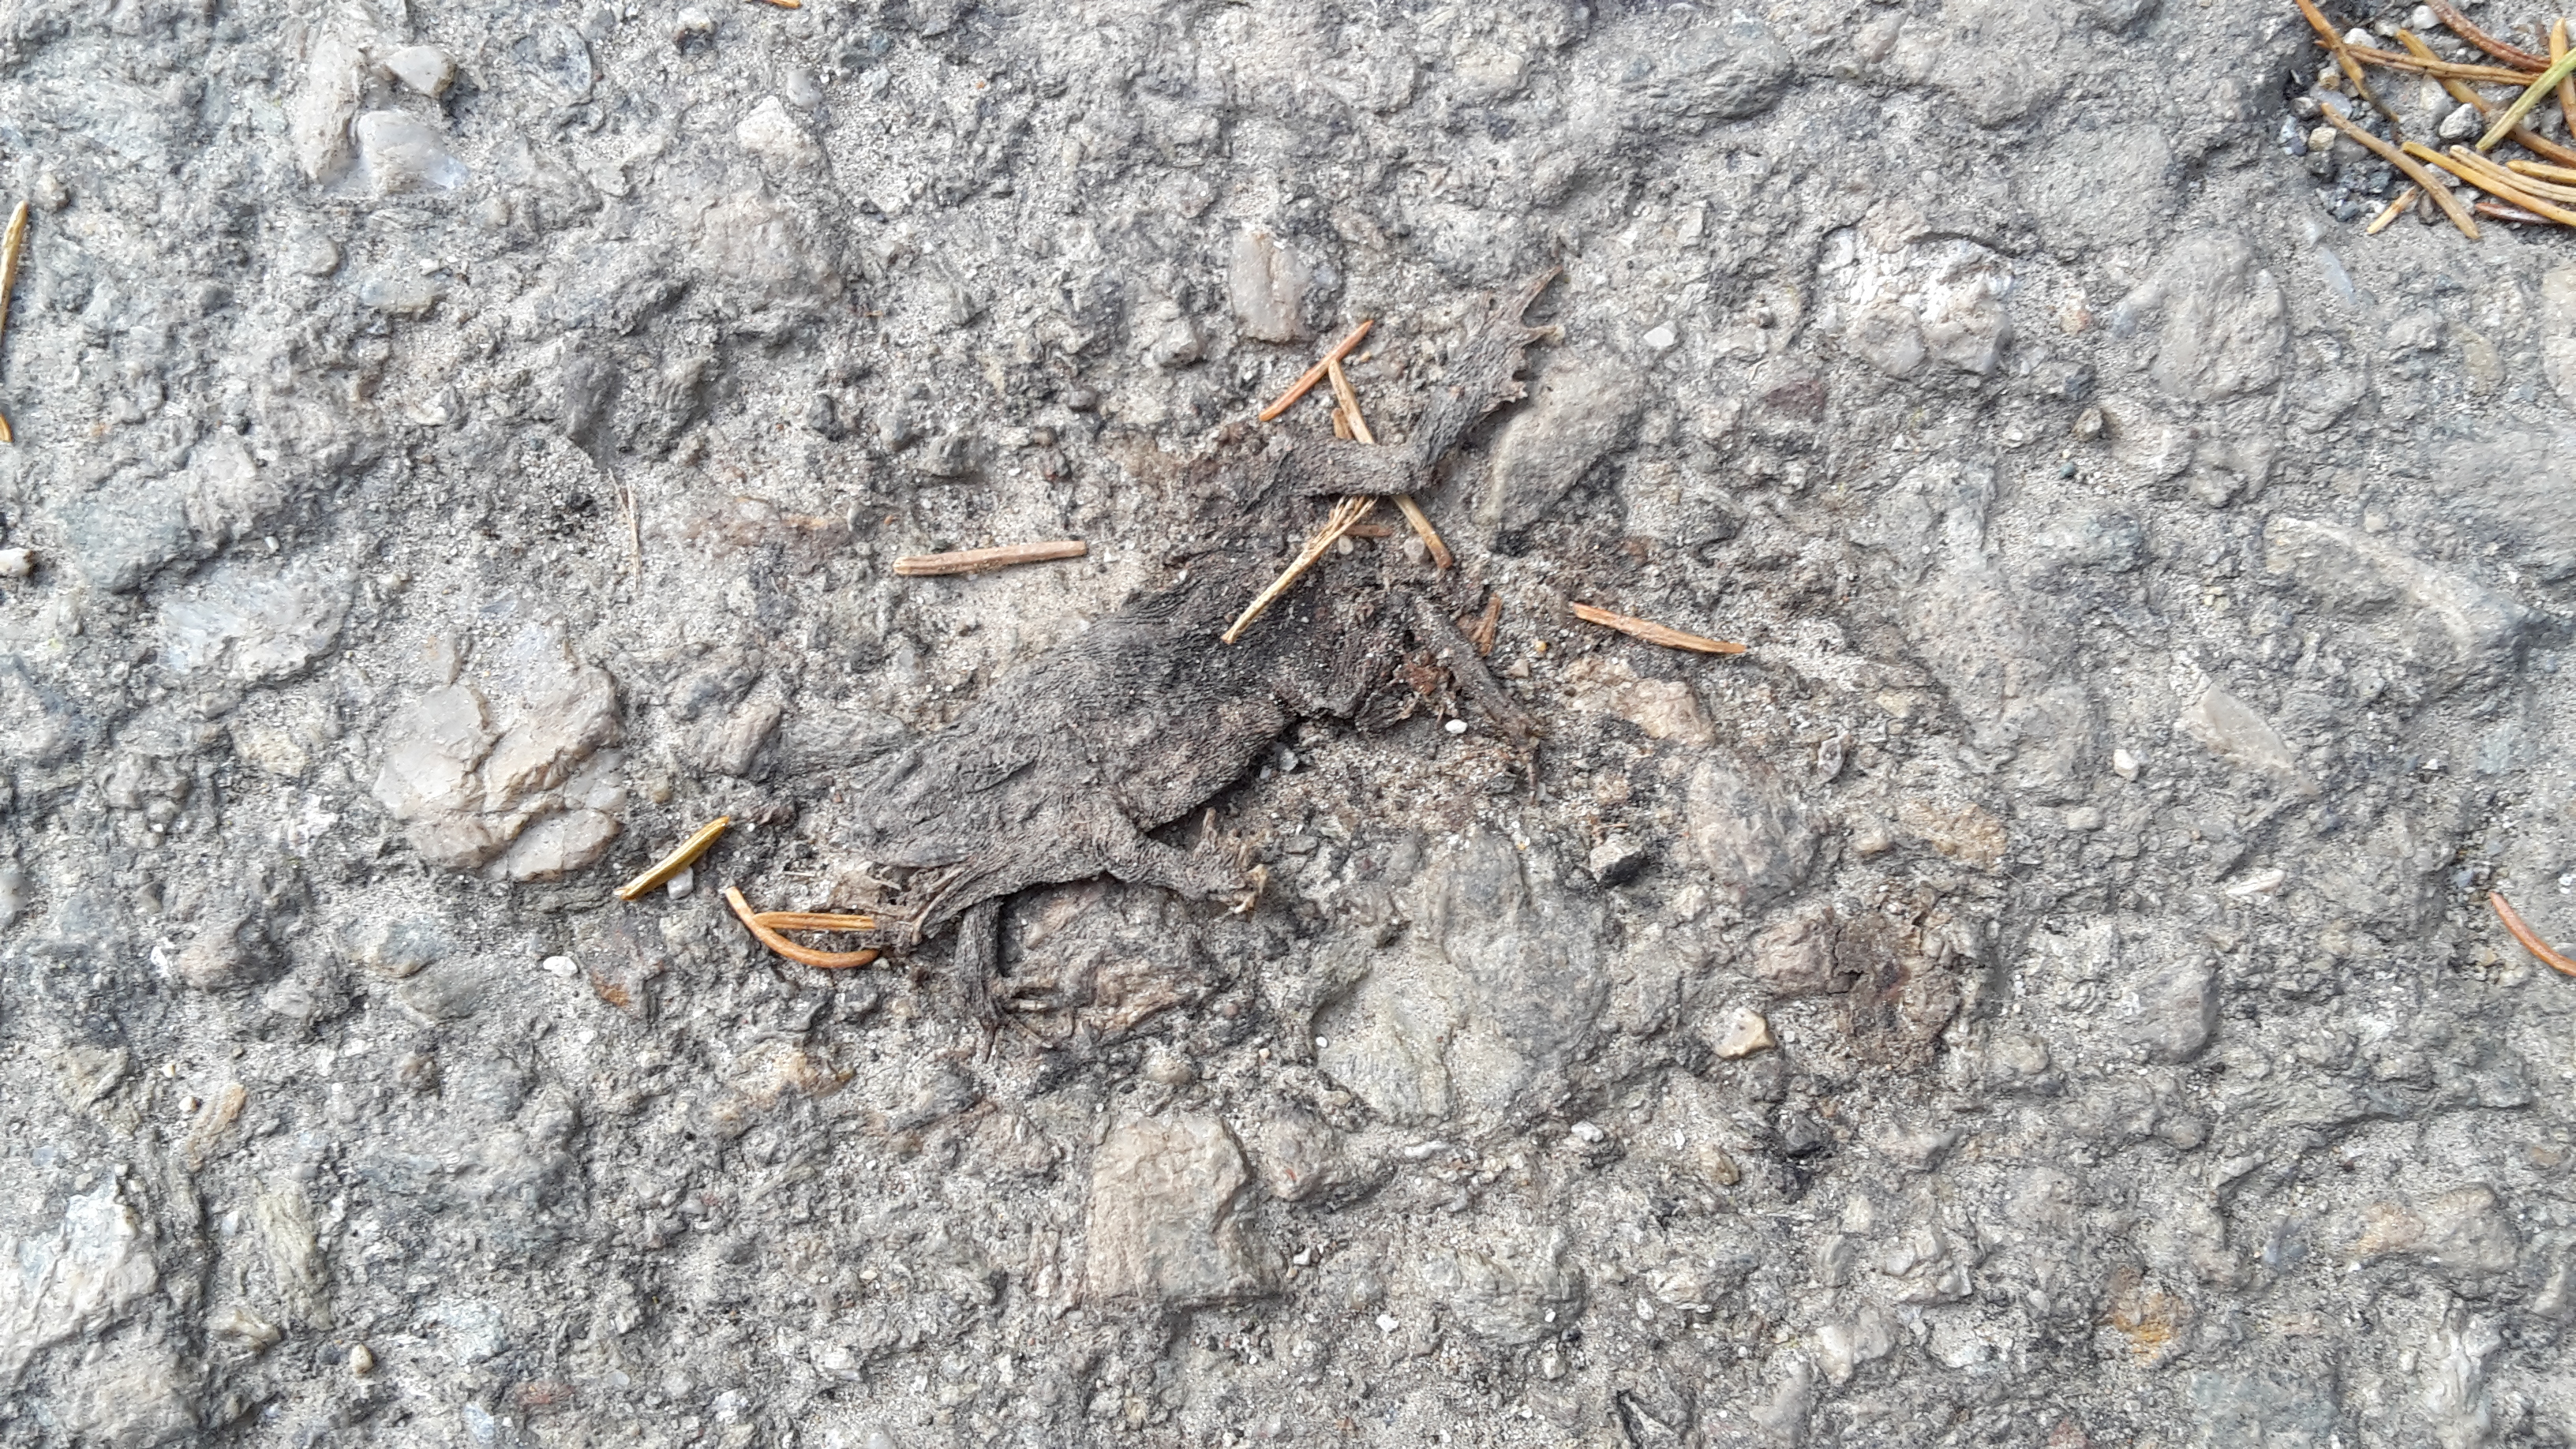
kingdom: Animalia
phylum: Chordata
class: Amphibia
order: Anura
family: Bufonidae
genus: Bufo
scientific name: Bufo bufo
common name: Common toad
